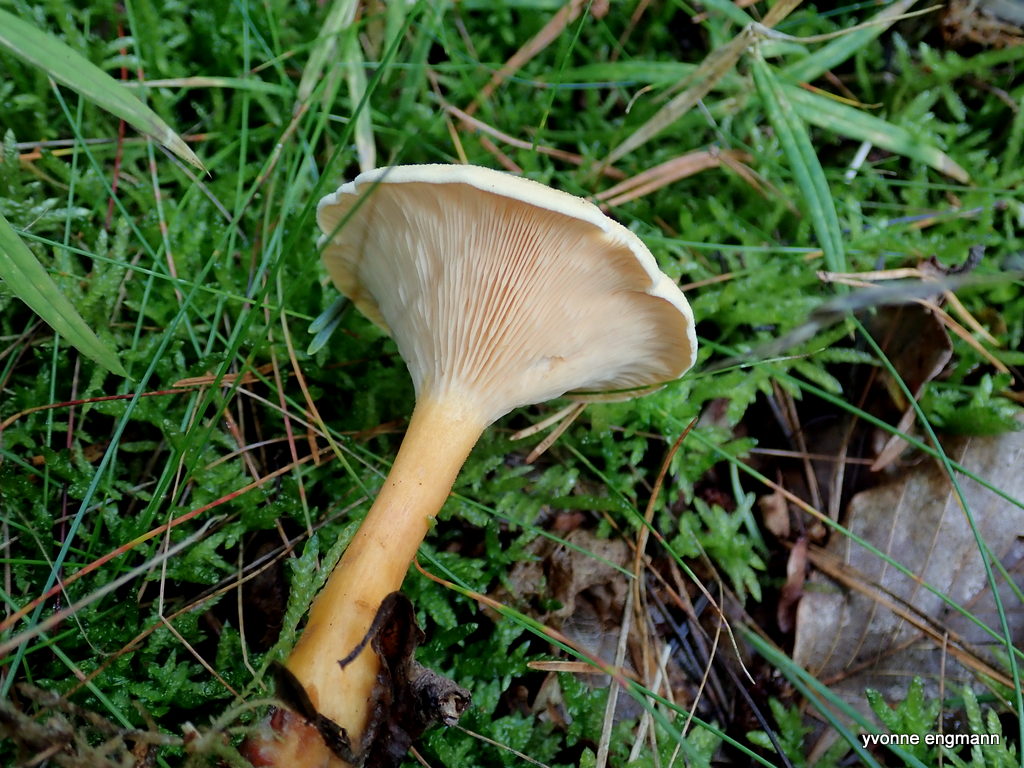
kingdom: Fungi
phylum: Basidiomycota
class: Agaricomycetes
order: Boletales
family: Hygrophoropsidaceae
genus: Hygrophoropsis
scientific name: Hygrophoropsis aurantiaca
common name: almindelig orangekantarel
